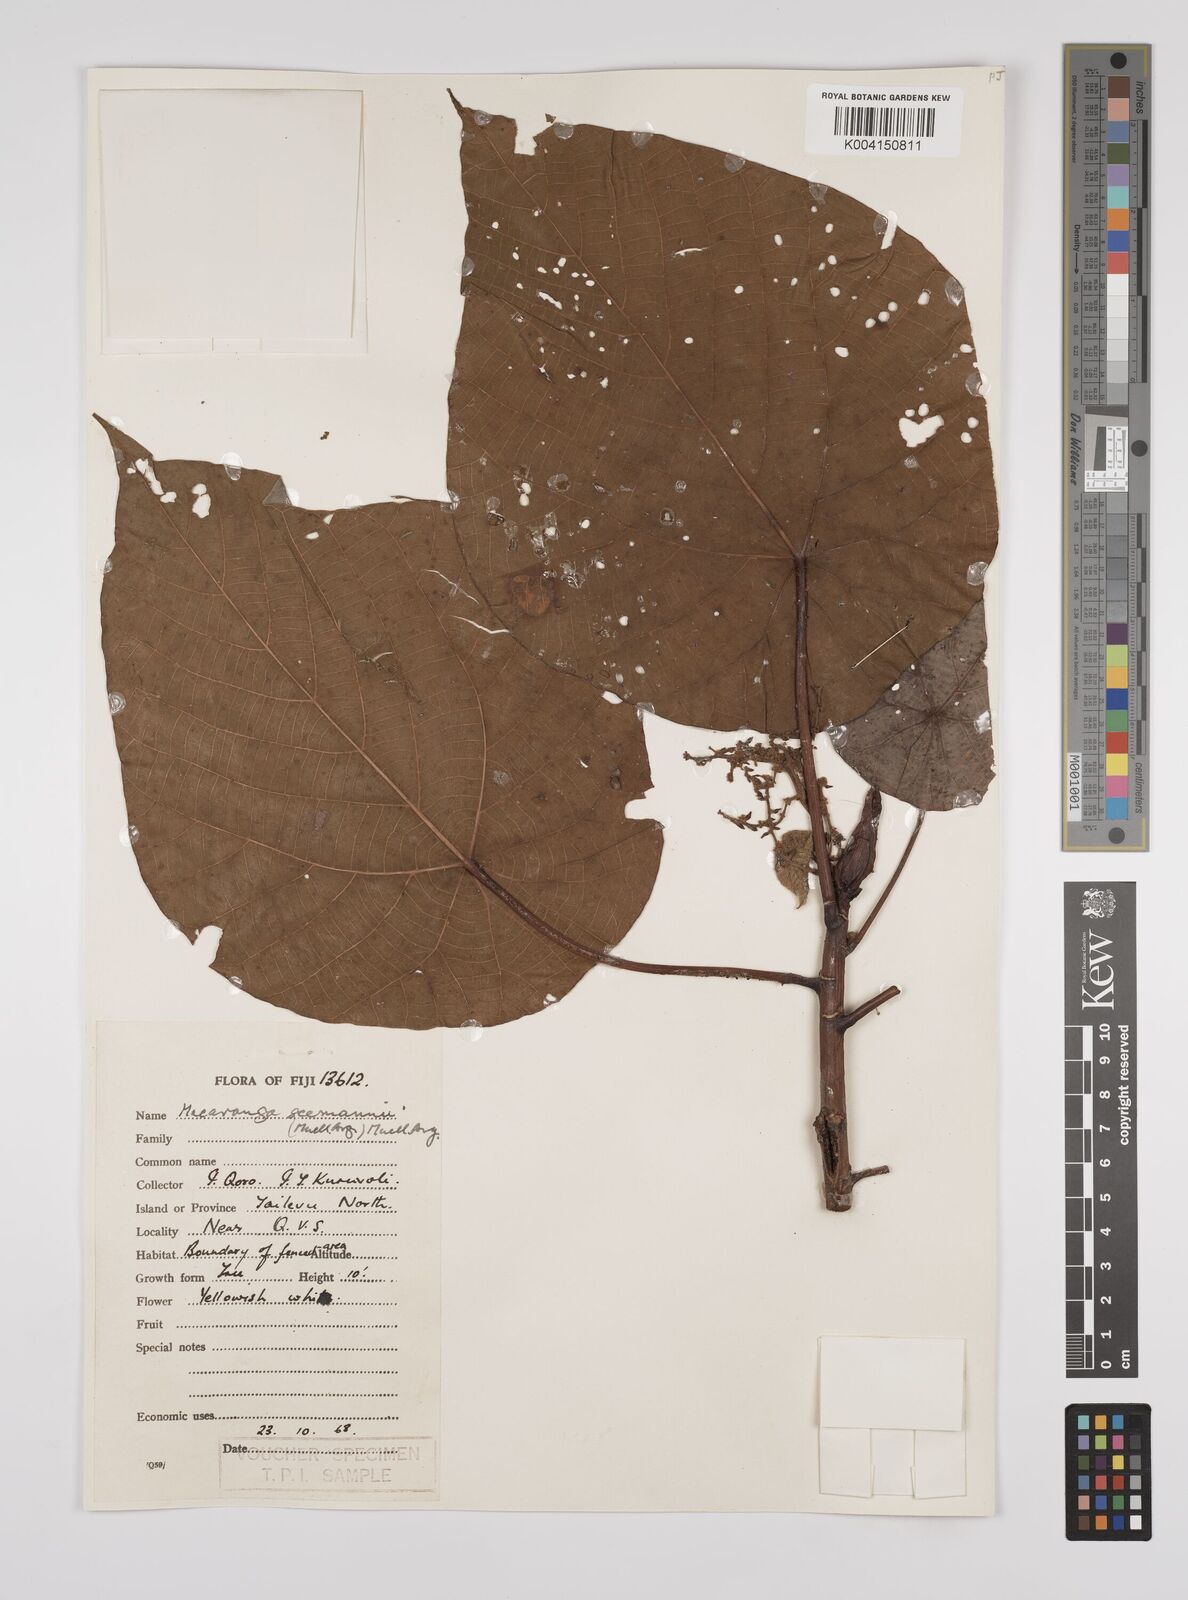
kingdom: Plantae
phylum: Tracheophyta
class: Magnoliopsida
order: Malpighiales
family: Euphorbiaceae
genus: Macaranga
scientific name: Macaranga seemannii
